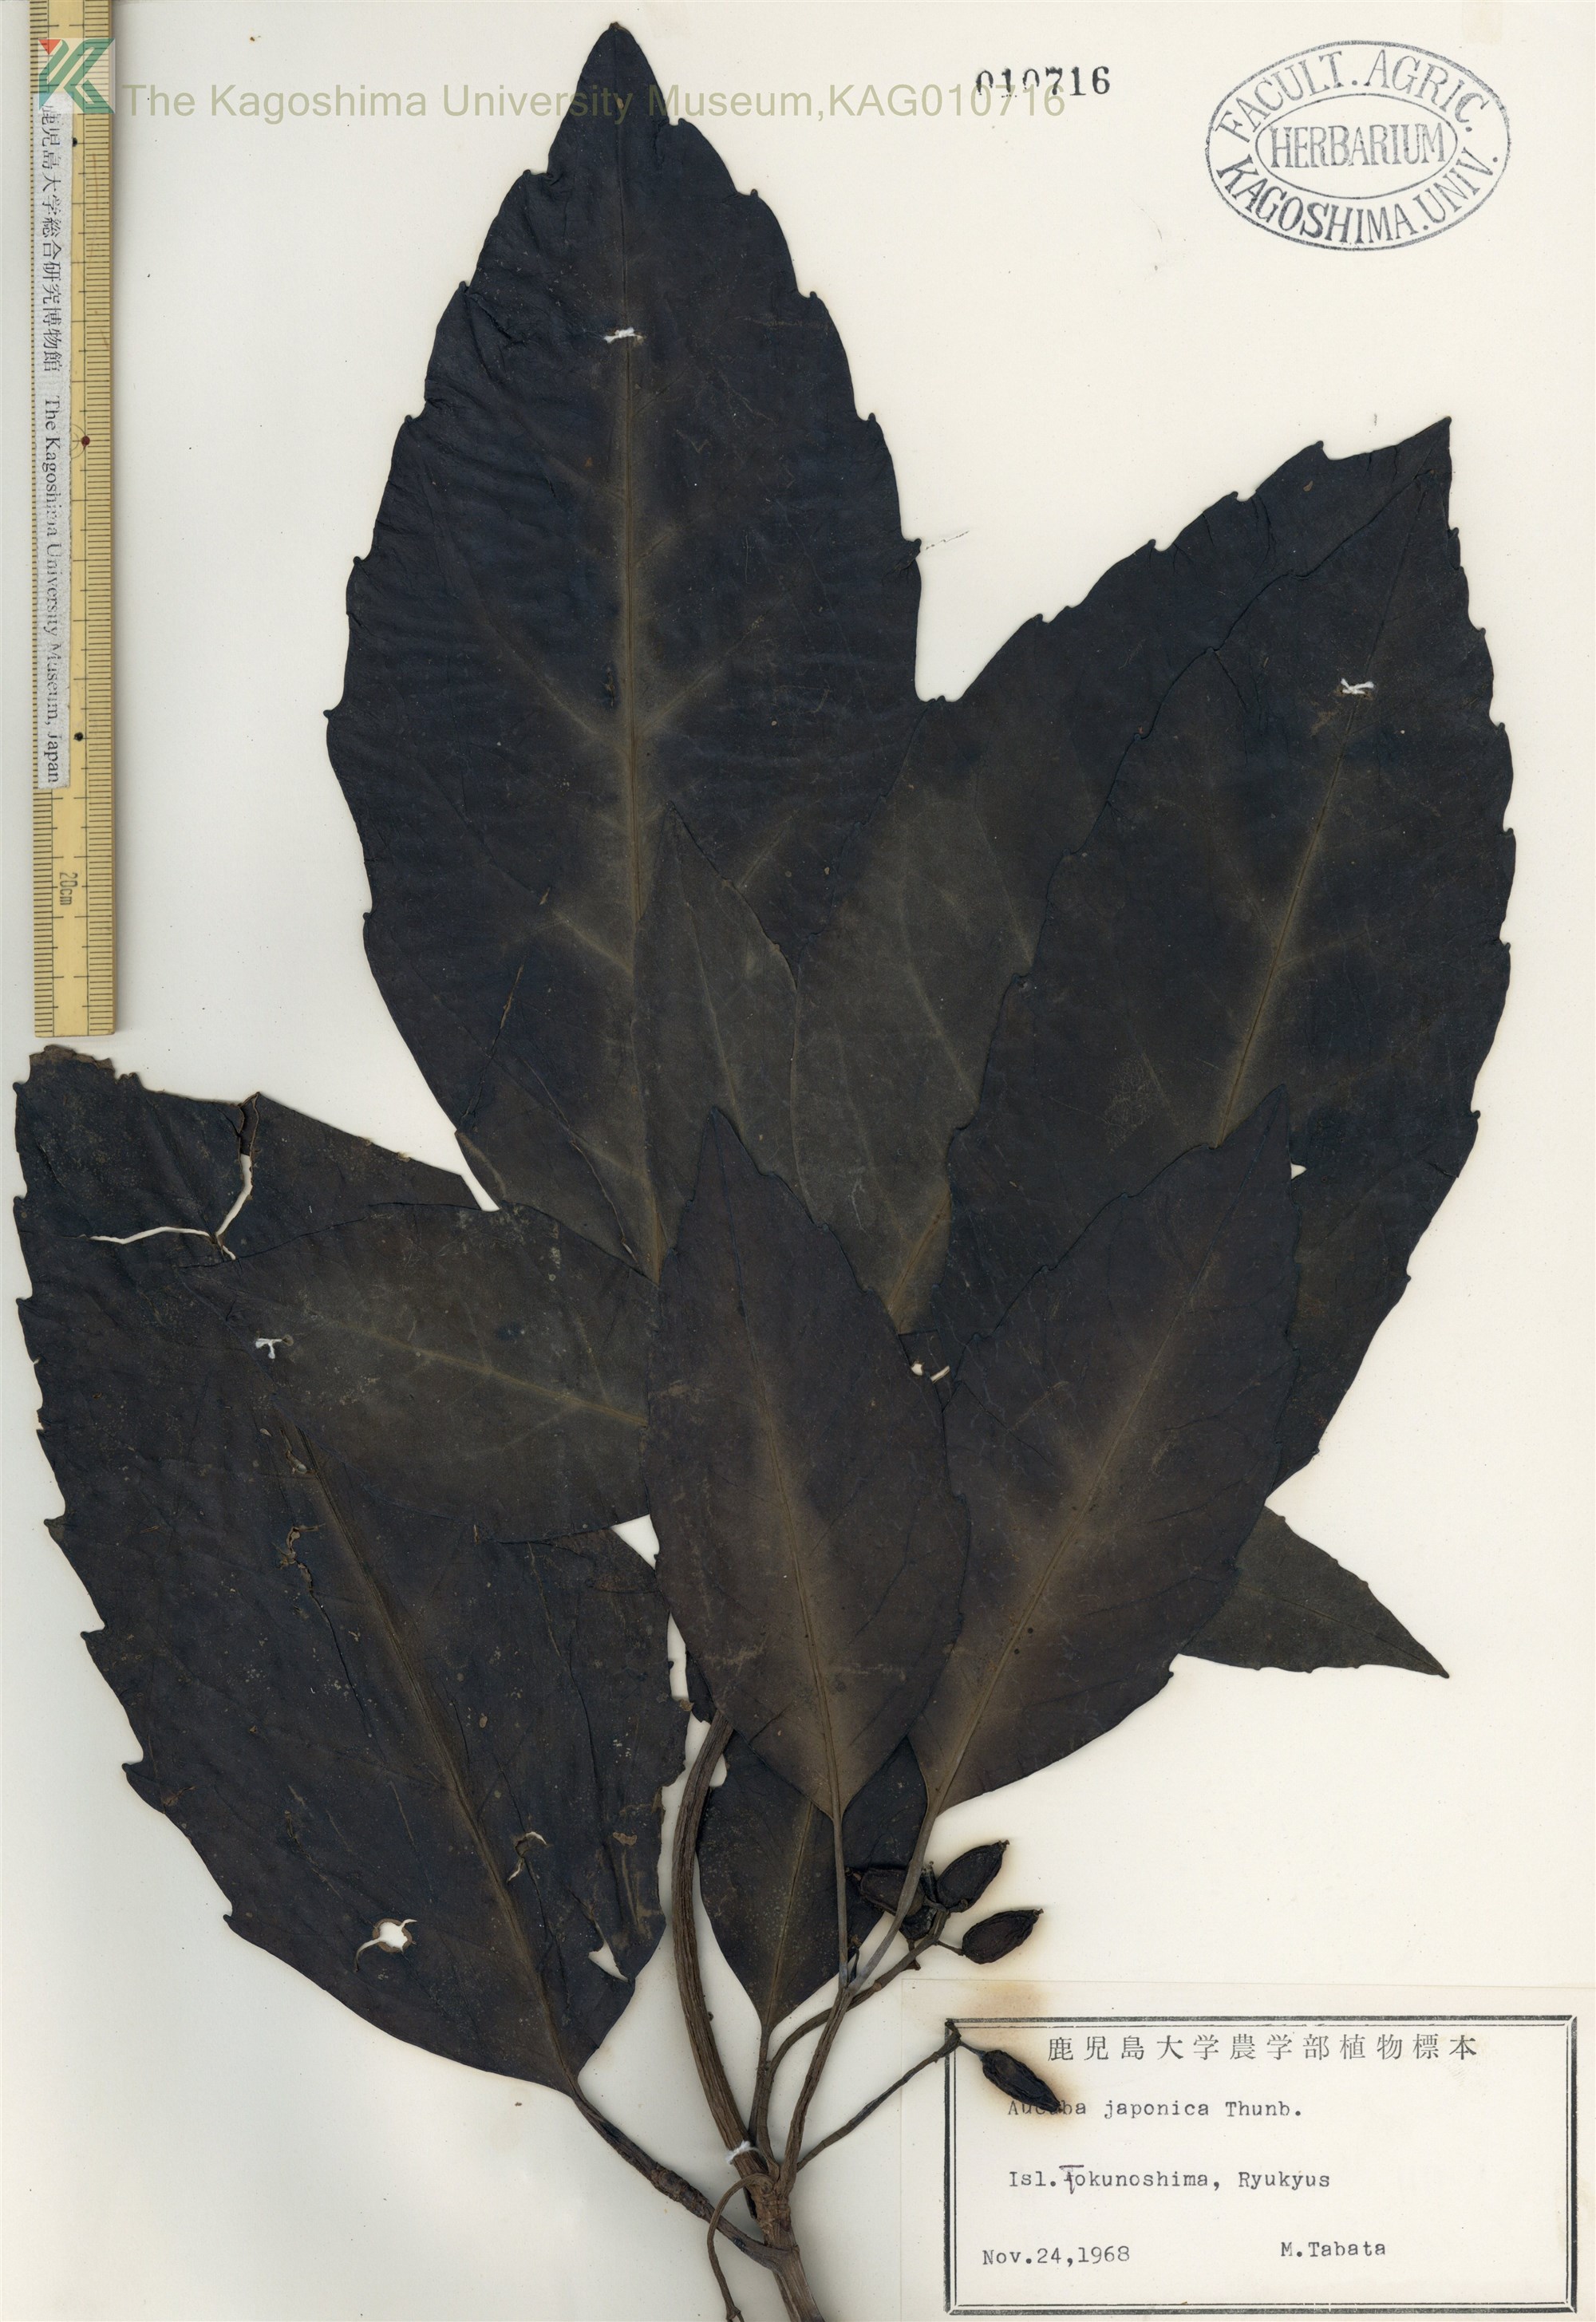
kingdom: Plantae
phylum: Tracheophyta
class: Magnoliopsida
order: Garryales
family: Garryaceae
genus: Aucuba
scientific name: Aucuba japonica
